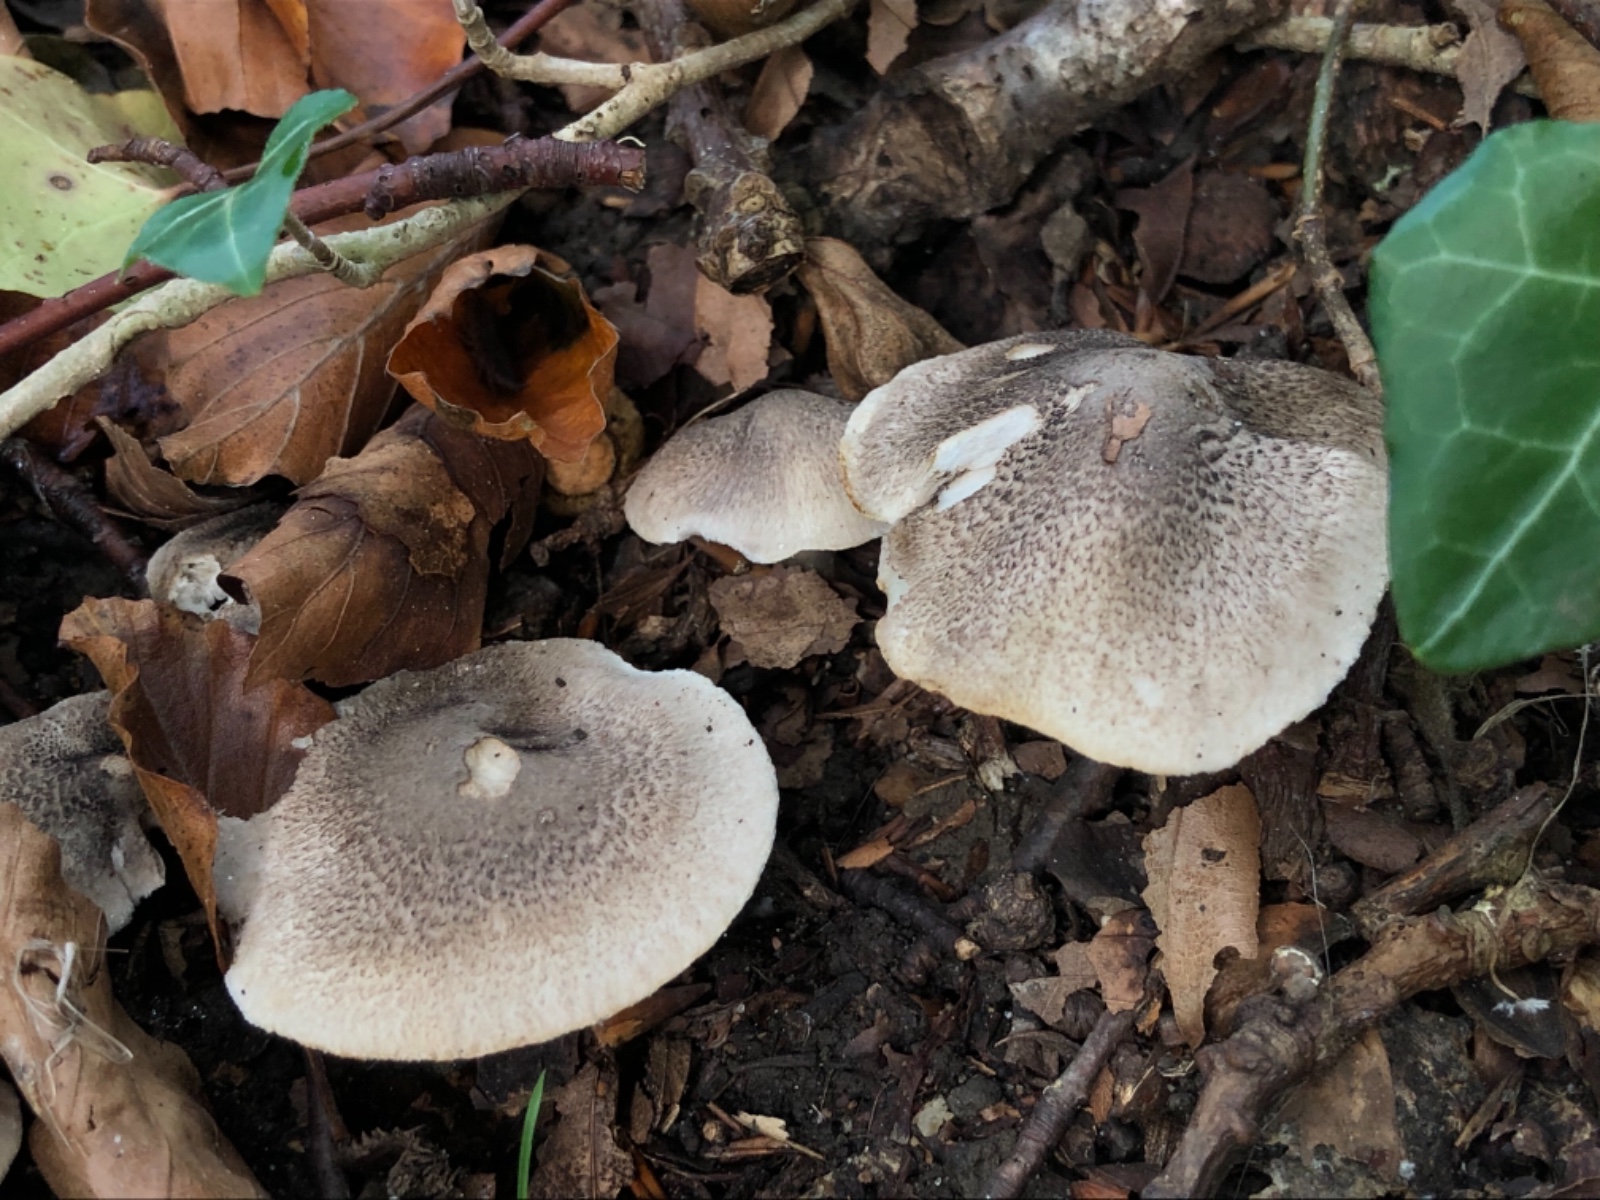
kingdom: Fungi
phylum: Basidiomycota
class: Agaricomycetes
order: Agaricales
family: Tricholomataceae
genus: Tricholoma
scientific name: Tricholoma orirubens
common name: rødbladet ridderhat
